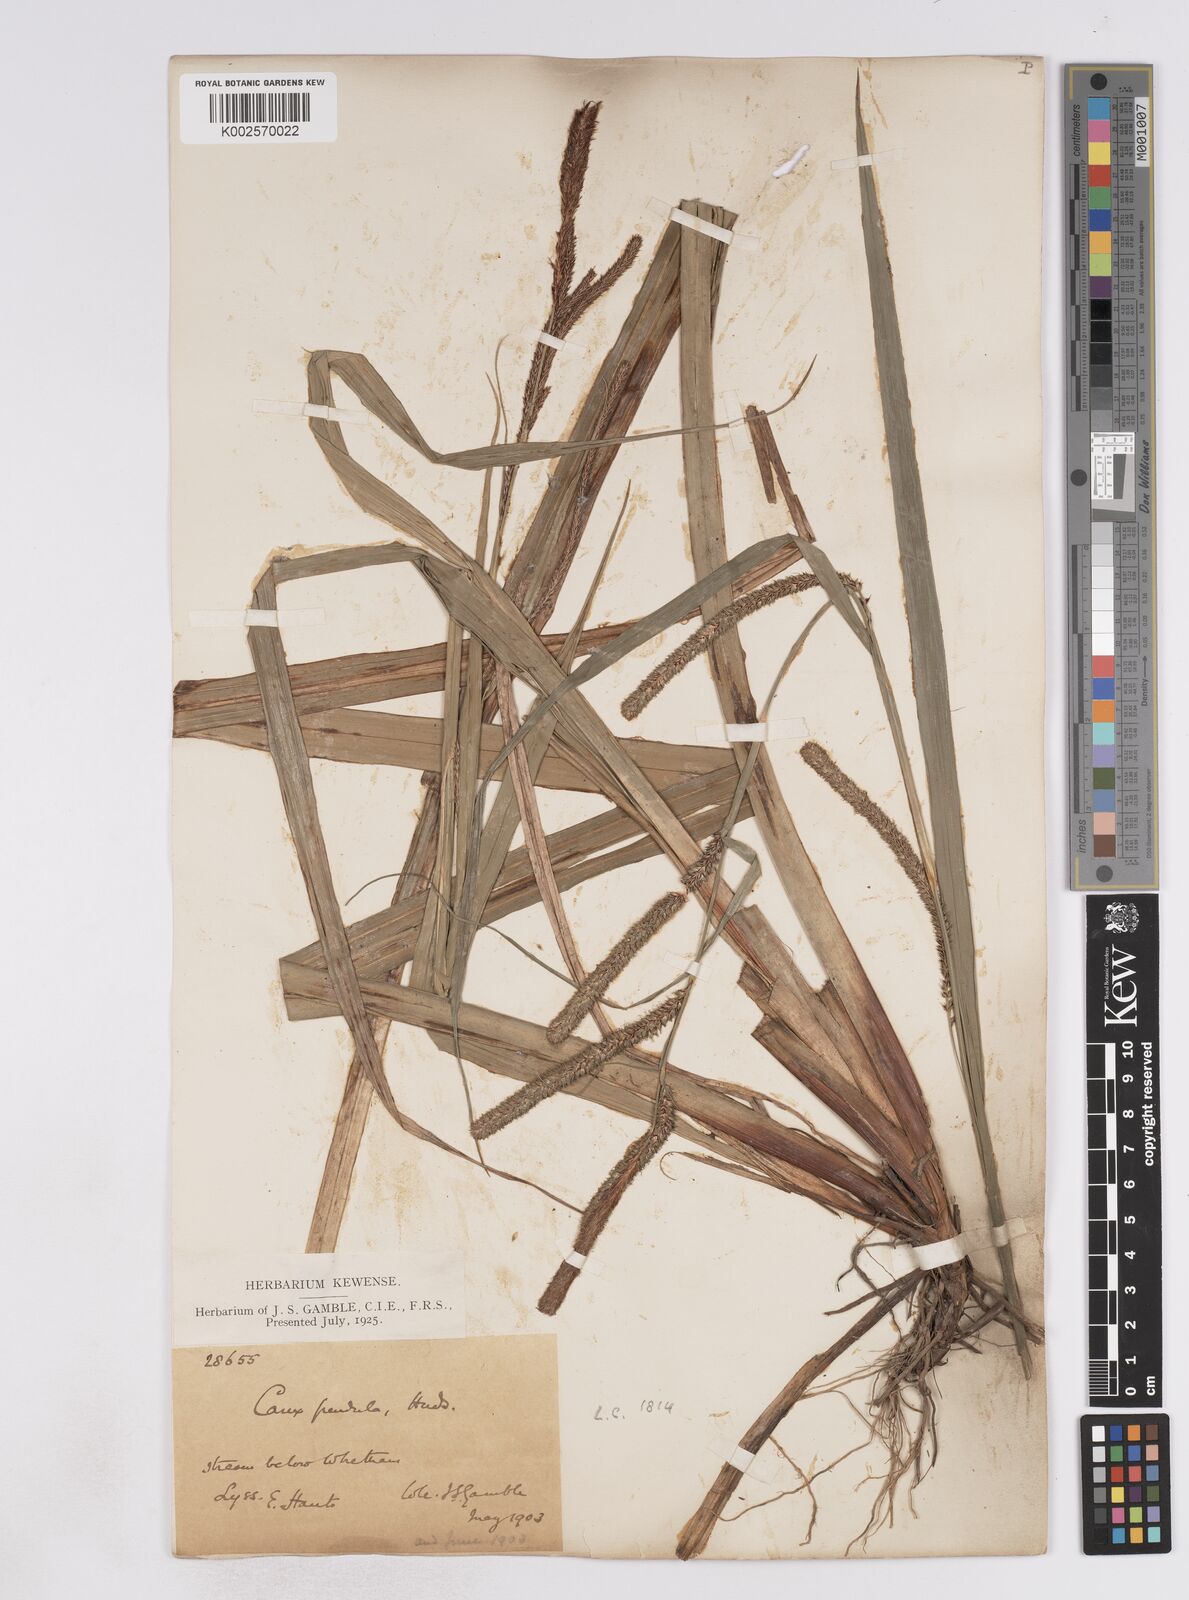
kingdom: Plantae
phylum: Tracheophyta
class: Liliopsida
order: Poales
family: Cyperaceae
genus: Carex
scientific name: Carex pendula
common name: Pendulous sedge
